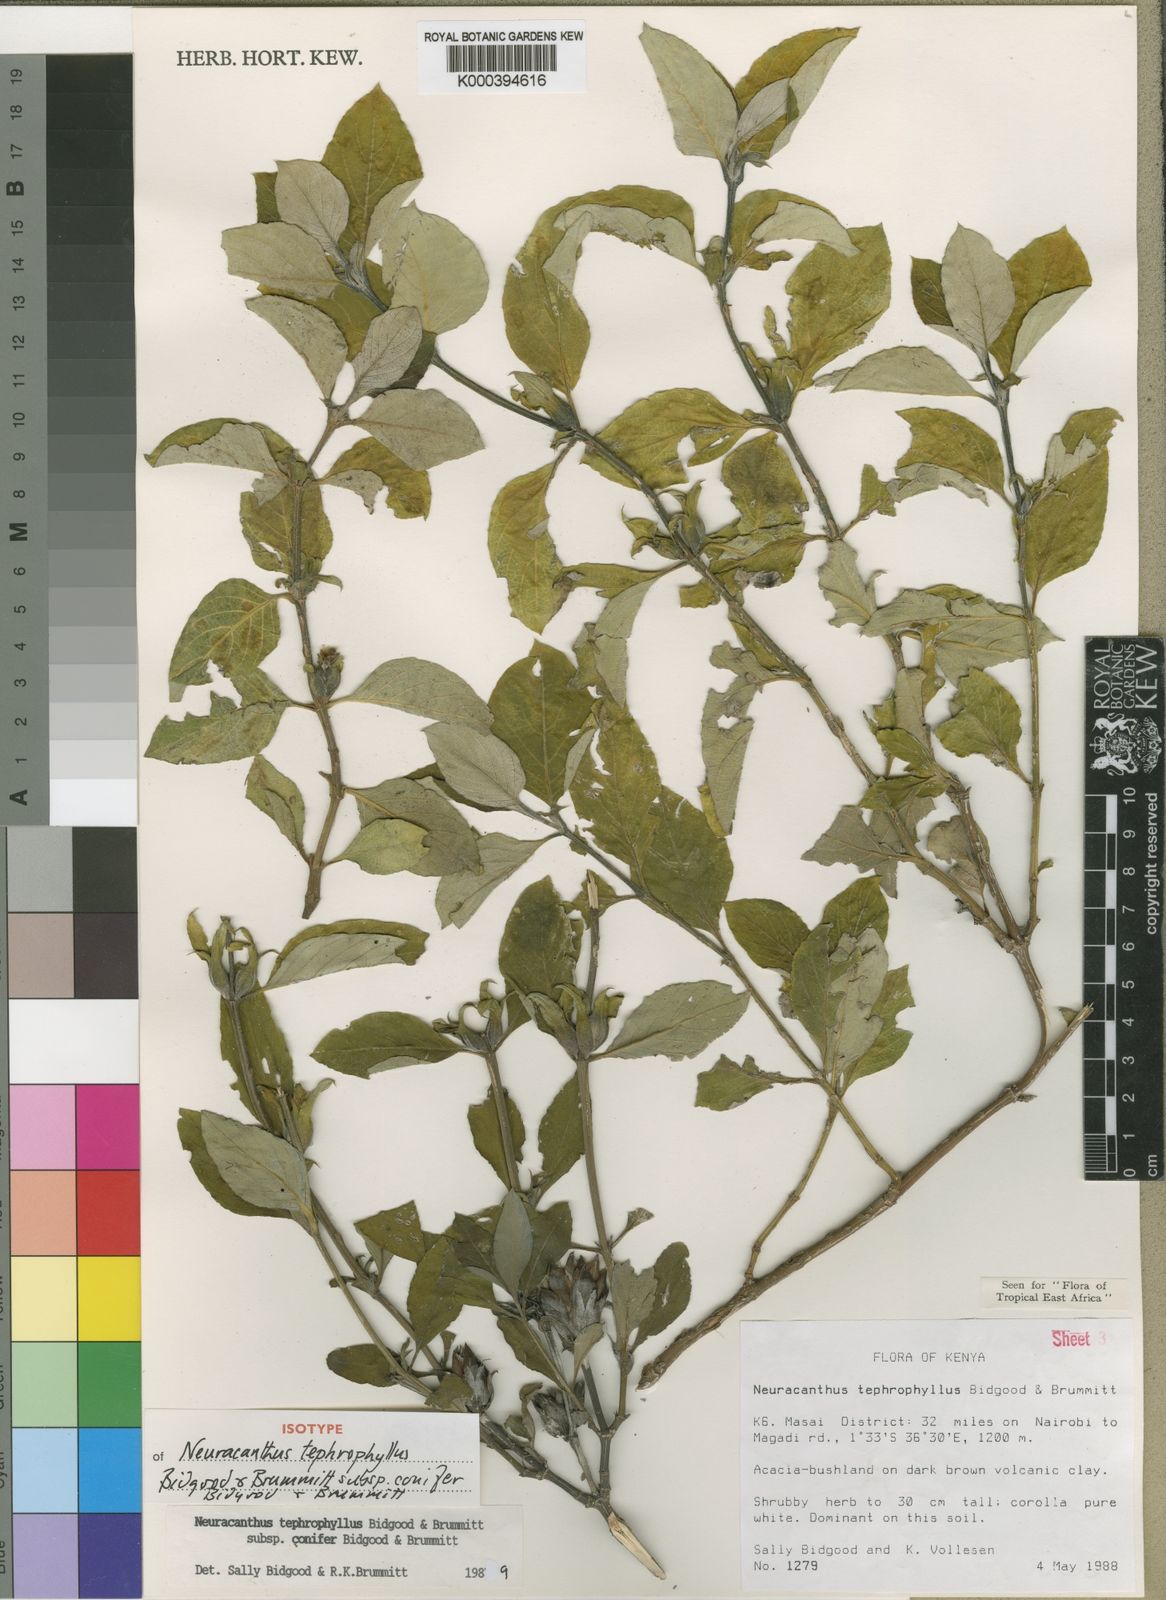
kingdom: Plantae
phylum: Tracheophyta
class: Magnoliopsida
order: Lamiales
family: Acanthaceae
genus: Neuracanthus
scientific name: Neuracanthus tephrophyllus
